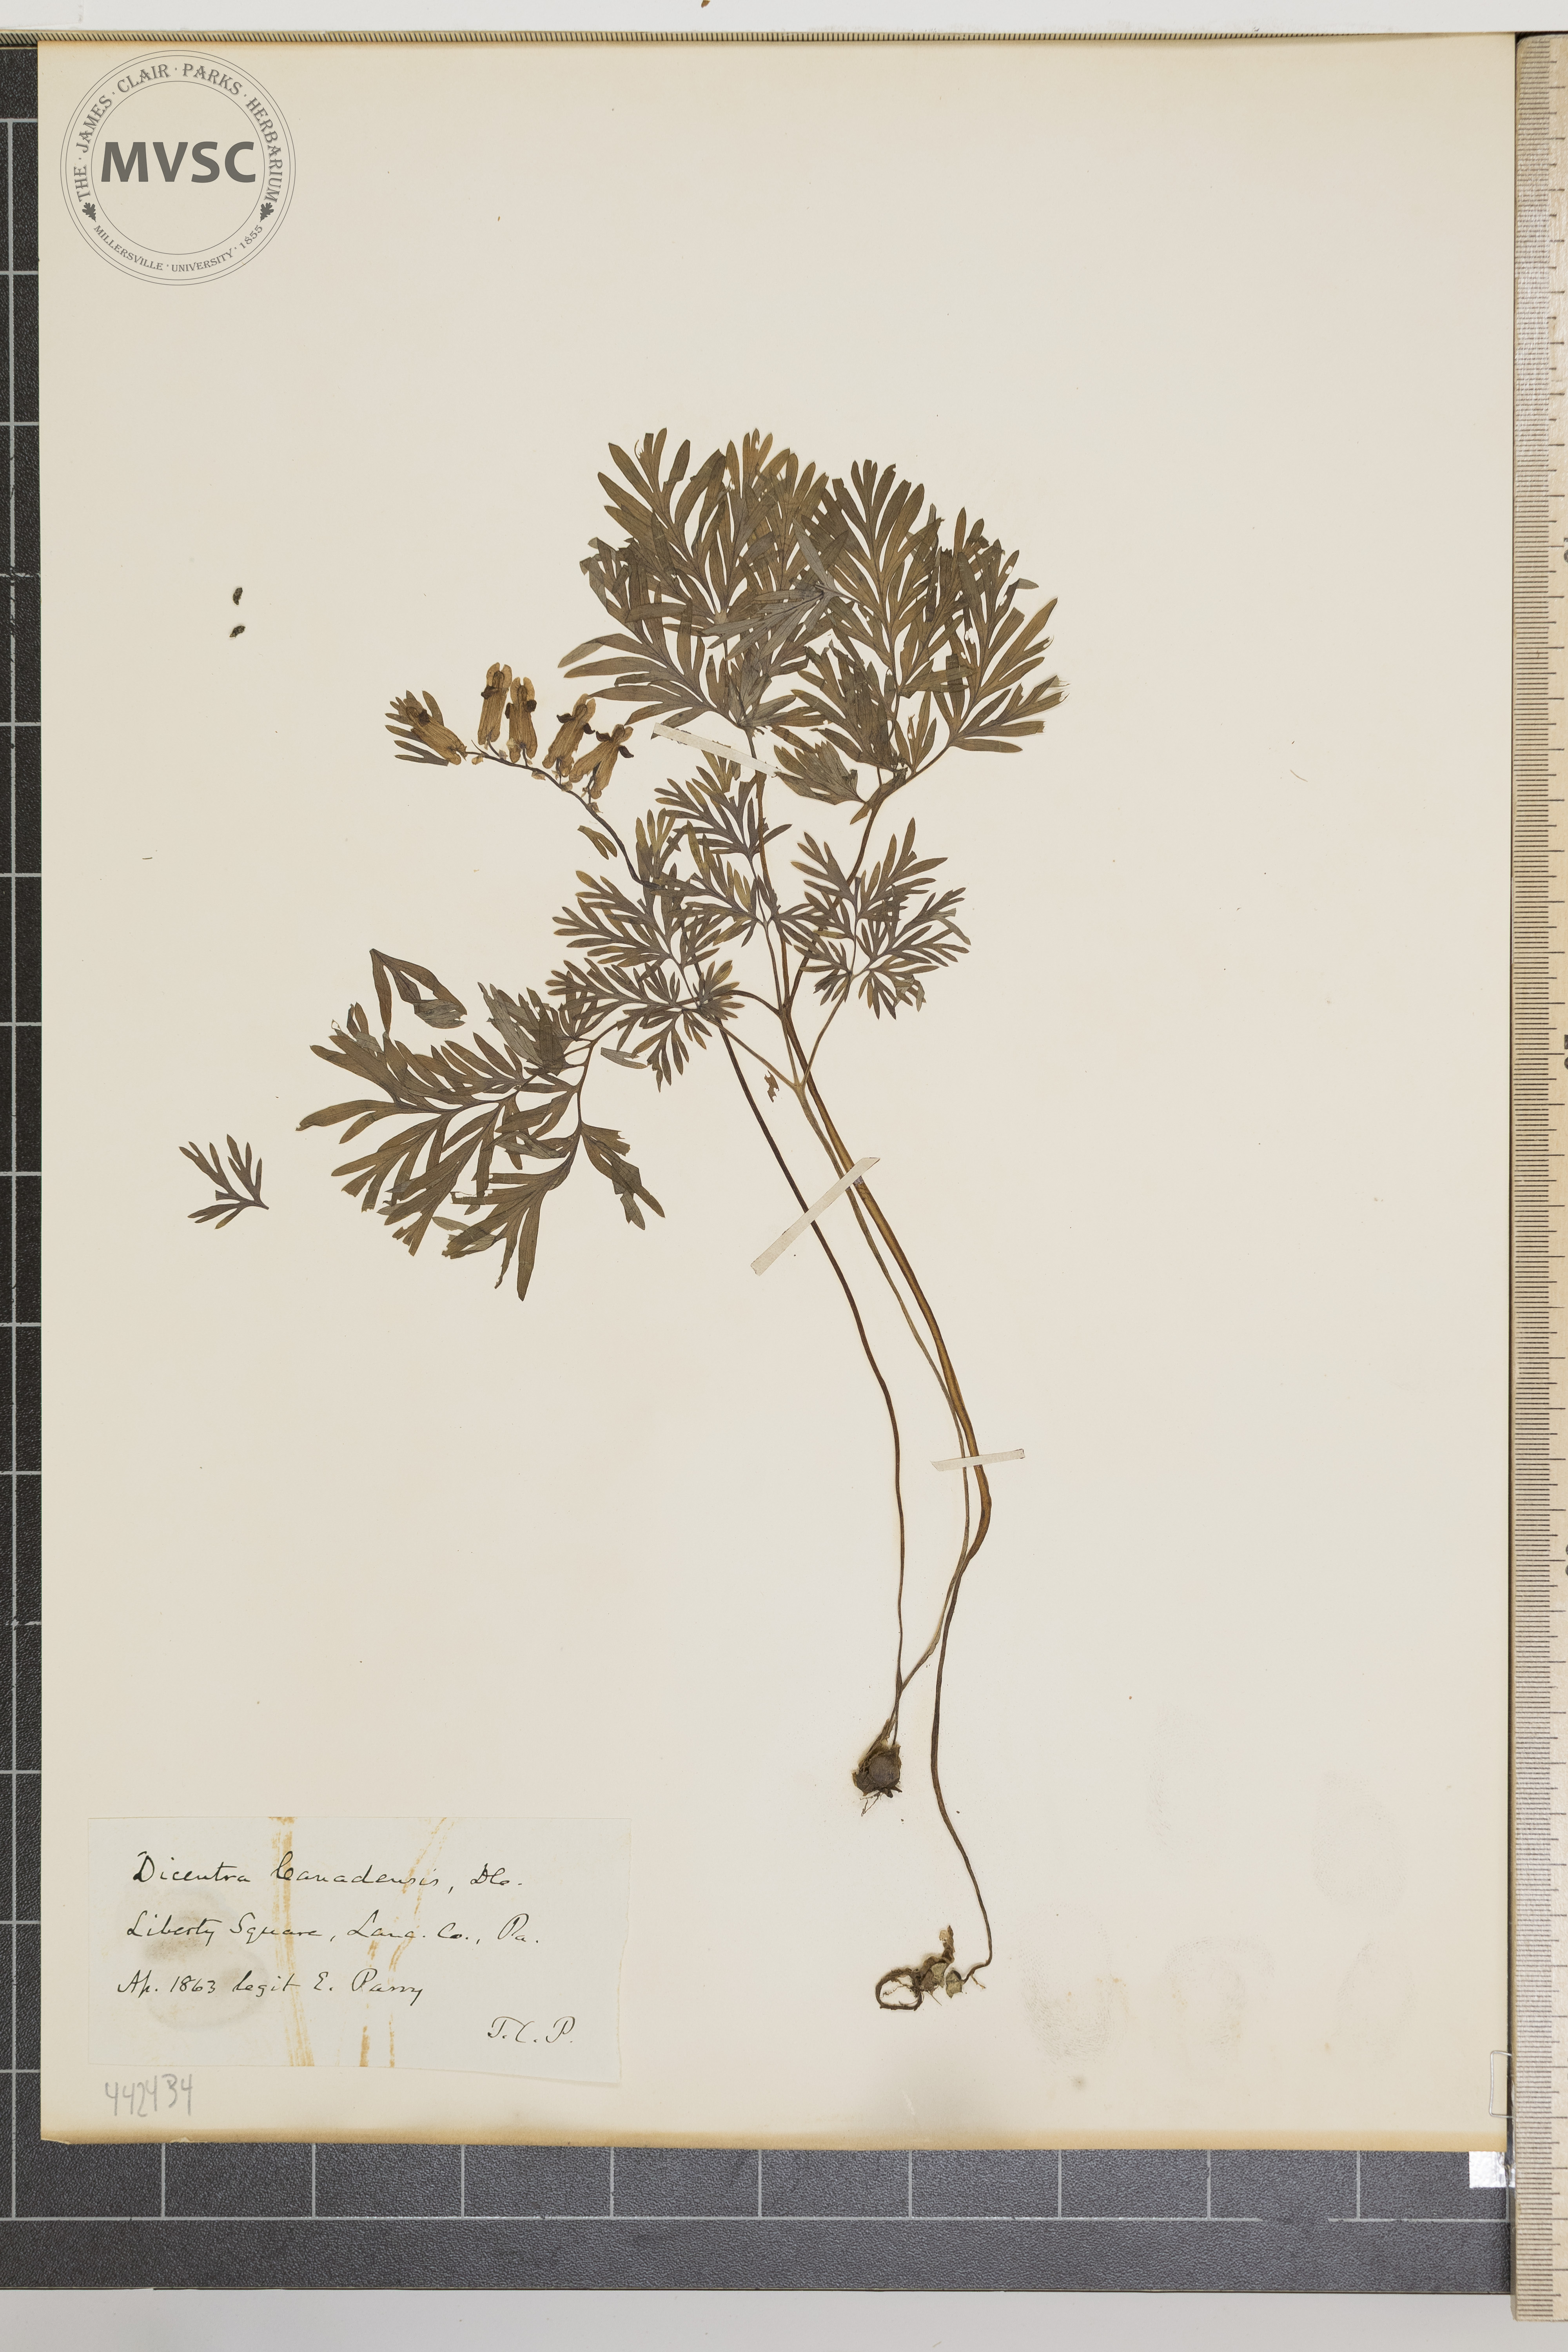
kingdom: Plantae
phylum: Tracheophyta
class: Magnoliopsida
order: Ranunculales
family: Papaveraceae
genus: Dicentra
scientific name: Dicentra canadensis
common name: Squirrel-corn
